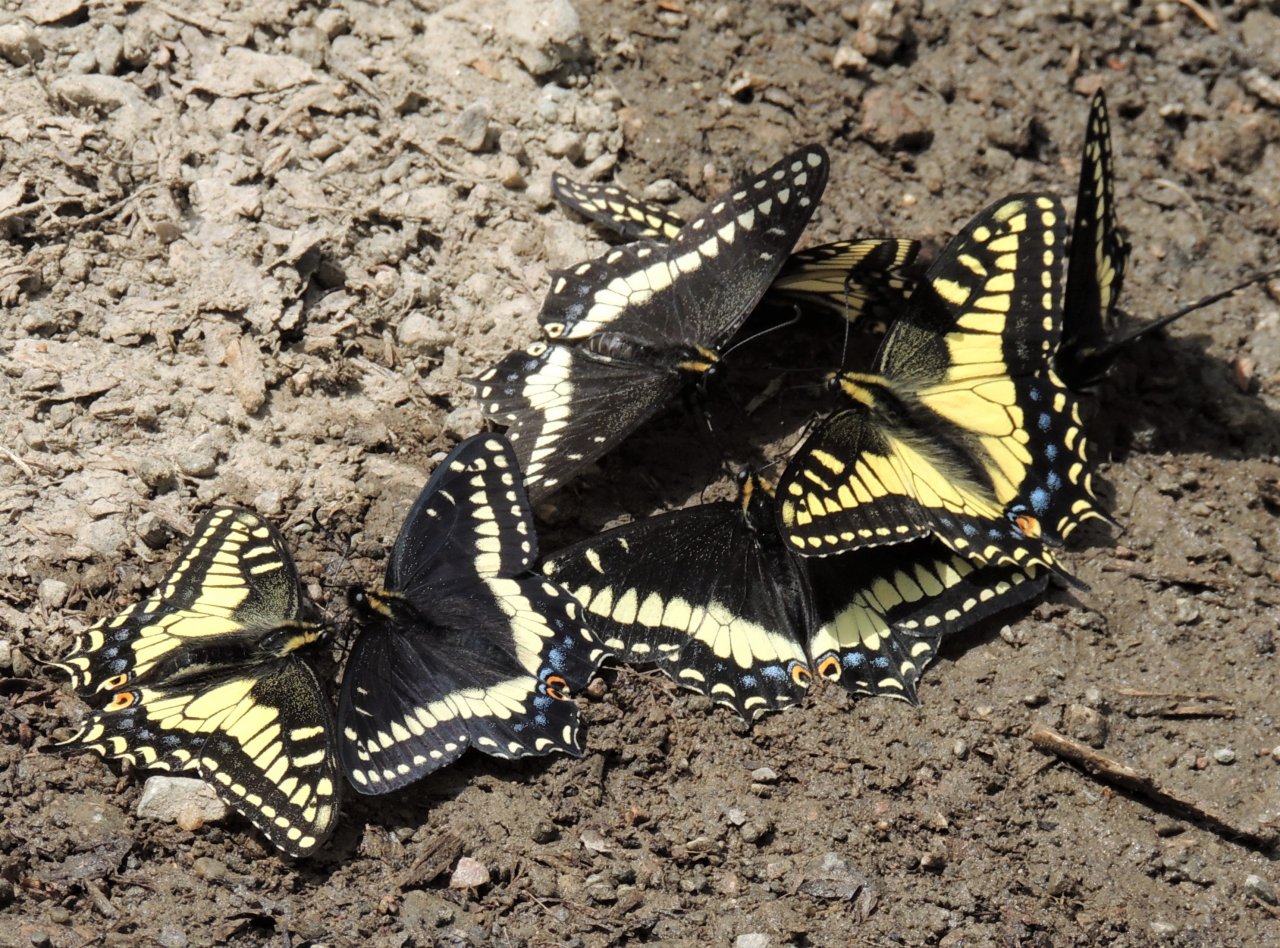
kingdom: Animalia
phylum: Arthropoda
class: Insecta
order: Lepidoptera
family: Papilionidae
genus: Papilio
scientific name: Papilio zelicaon
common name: Anise Swallowtail
